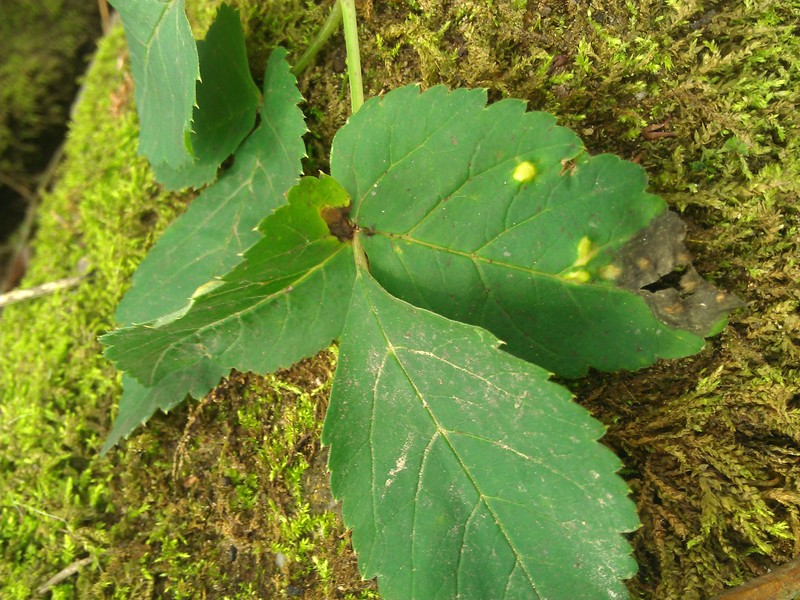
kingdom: Fungi
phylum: Ascomycota
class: Taphrinomycetes
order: Taphrinales
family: Taphrinaceae
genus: Protomyces
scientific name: Protomyces macrosporus
